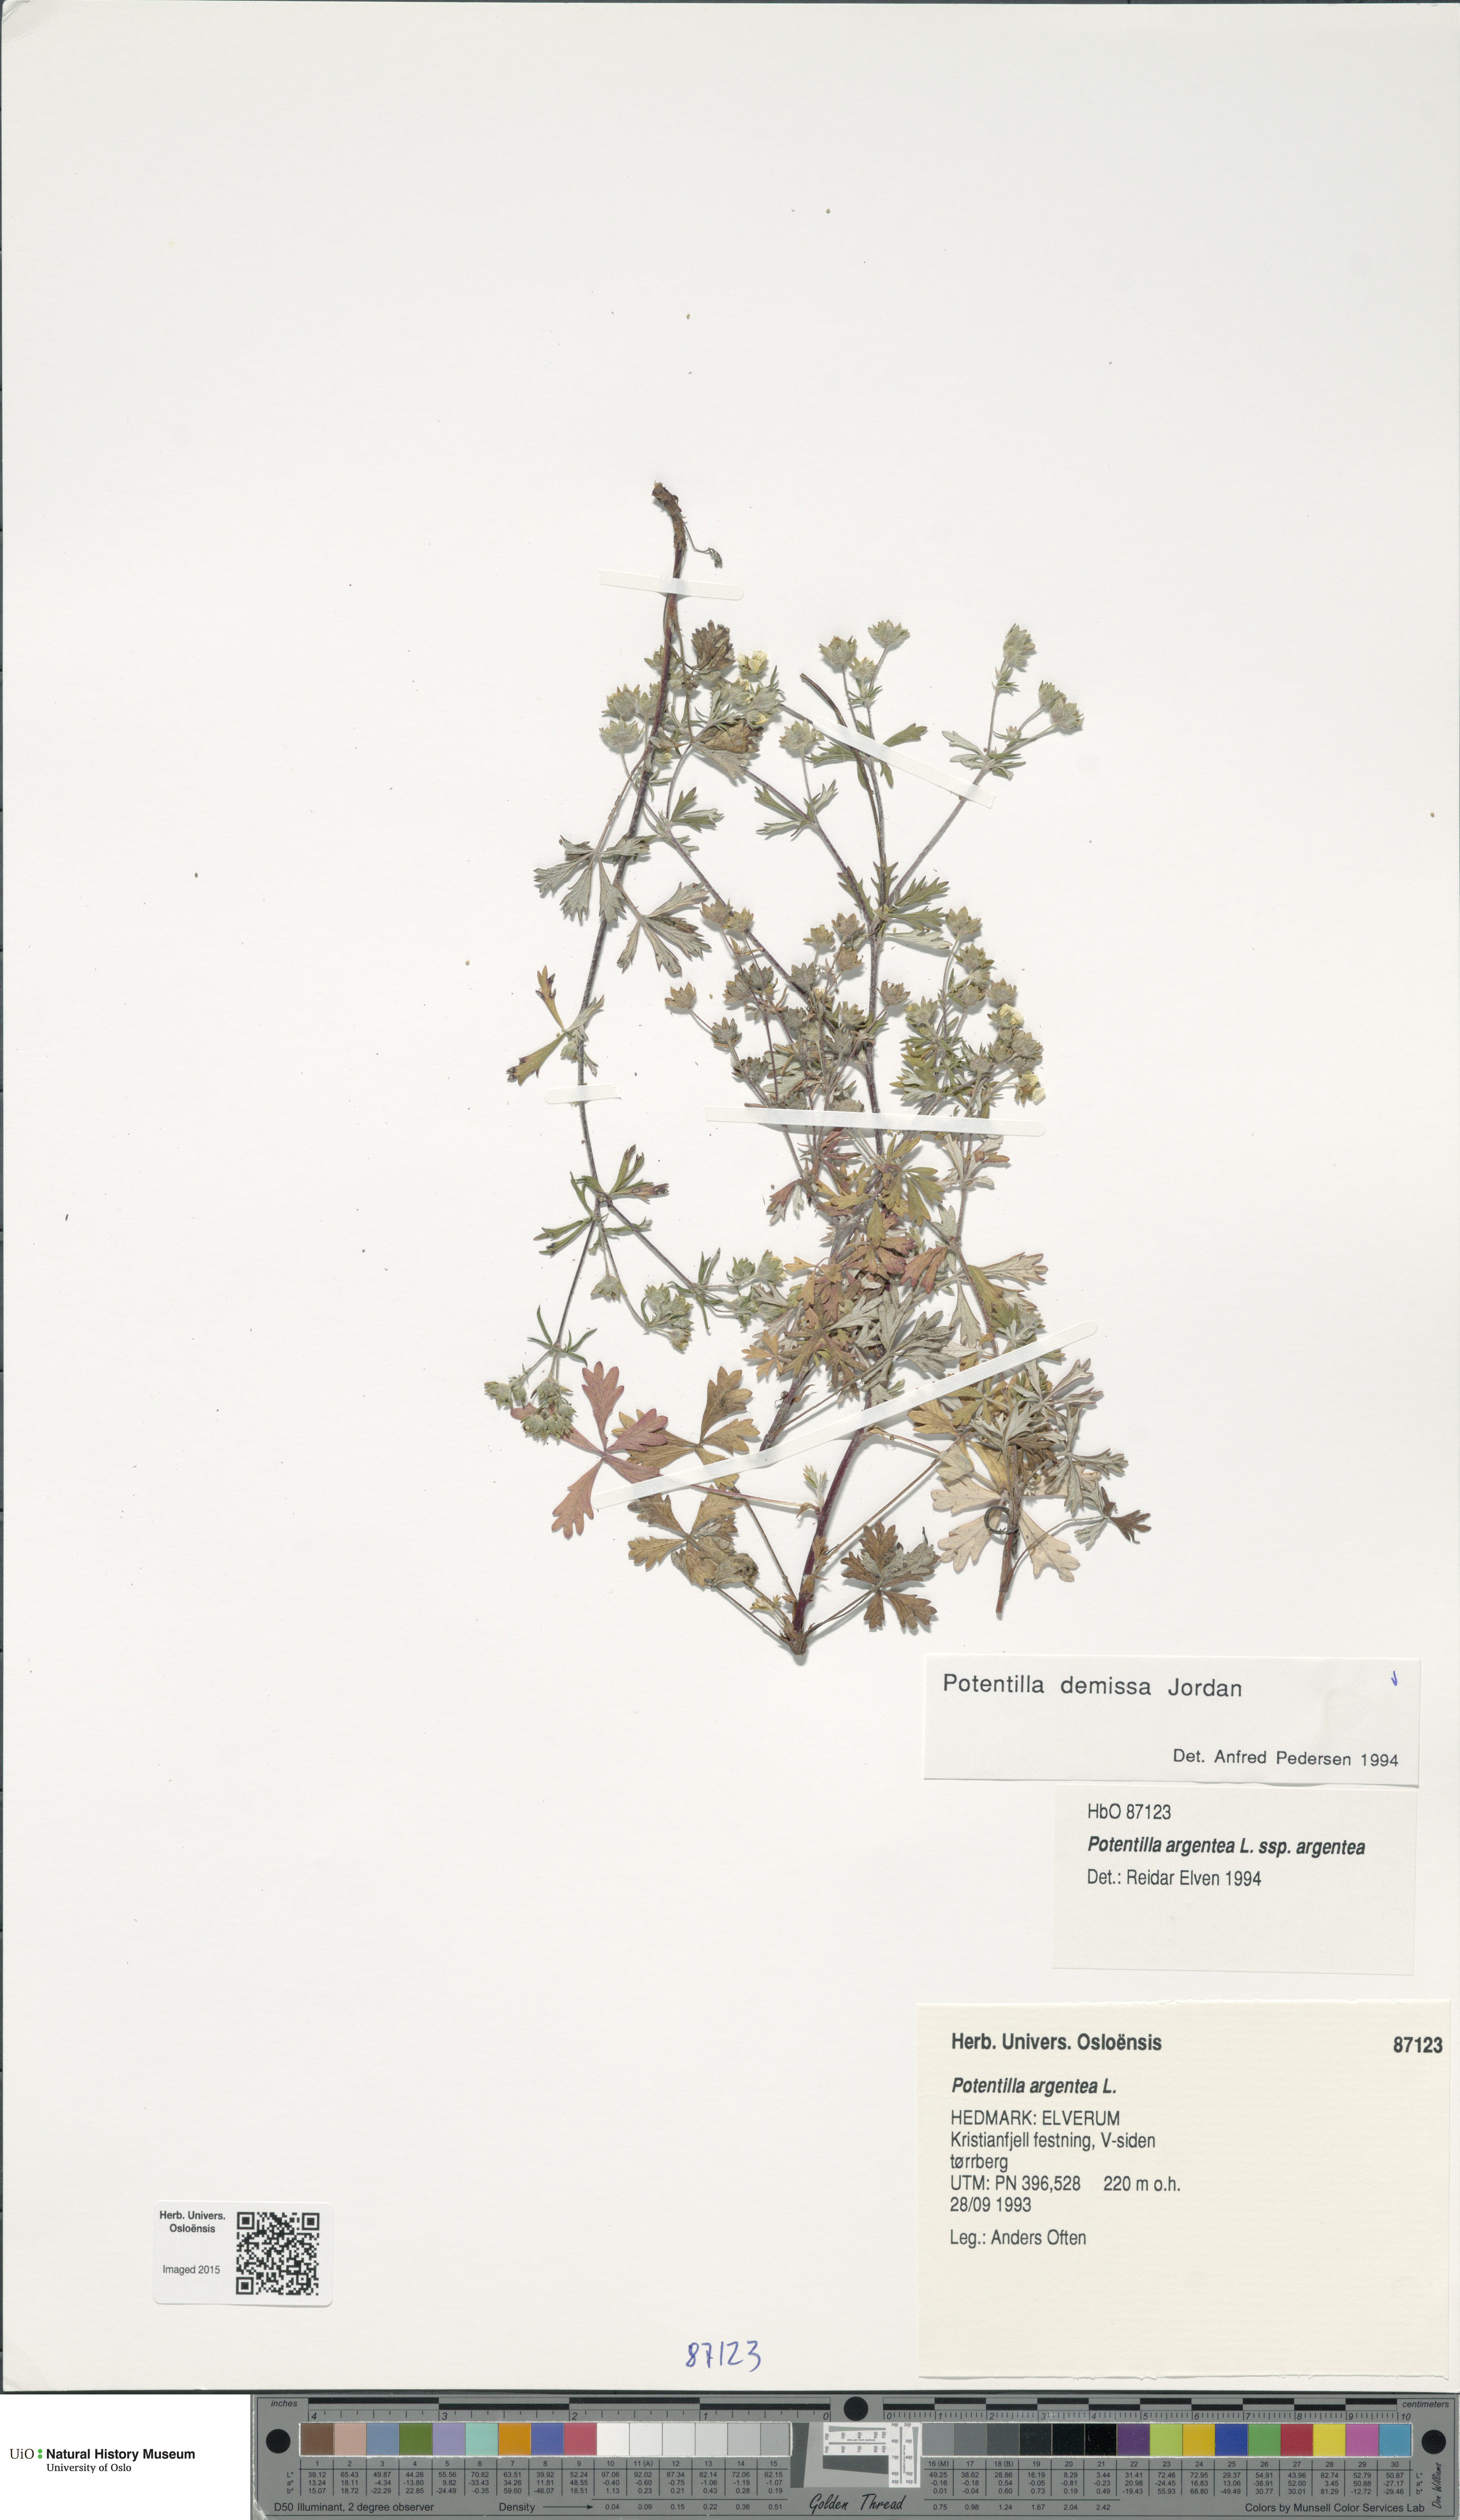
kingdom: Plantae
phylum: Tracheophyta
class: Magnoliopsida
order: Rosales
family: Rosaceae
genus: Potentilla
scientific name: Potentilla argentea
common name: Hoary cinquefoil
